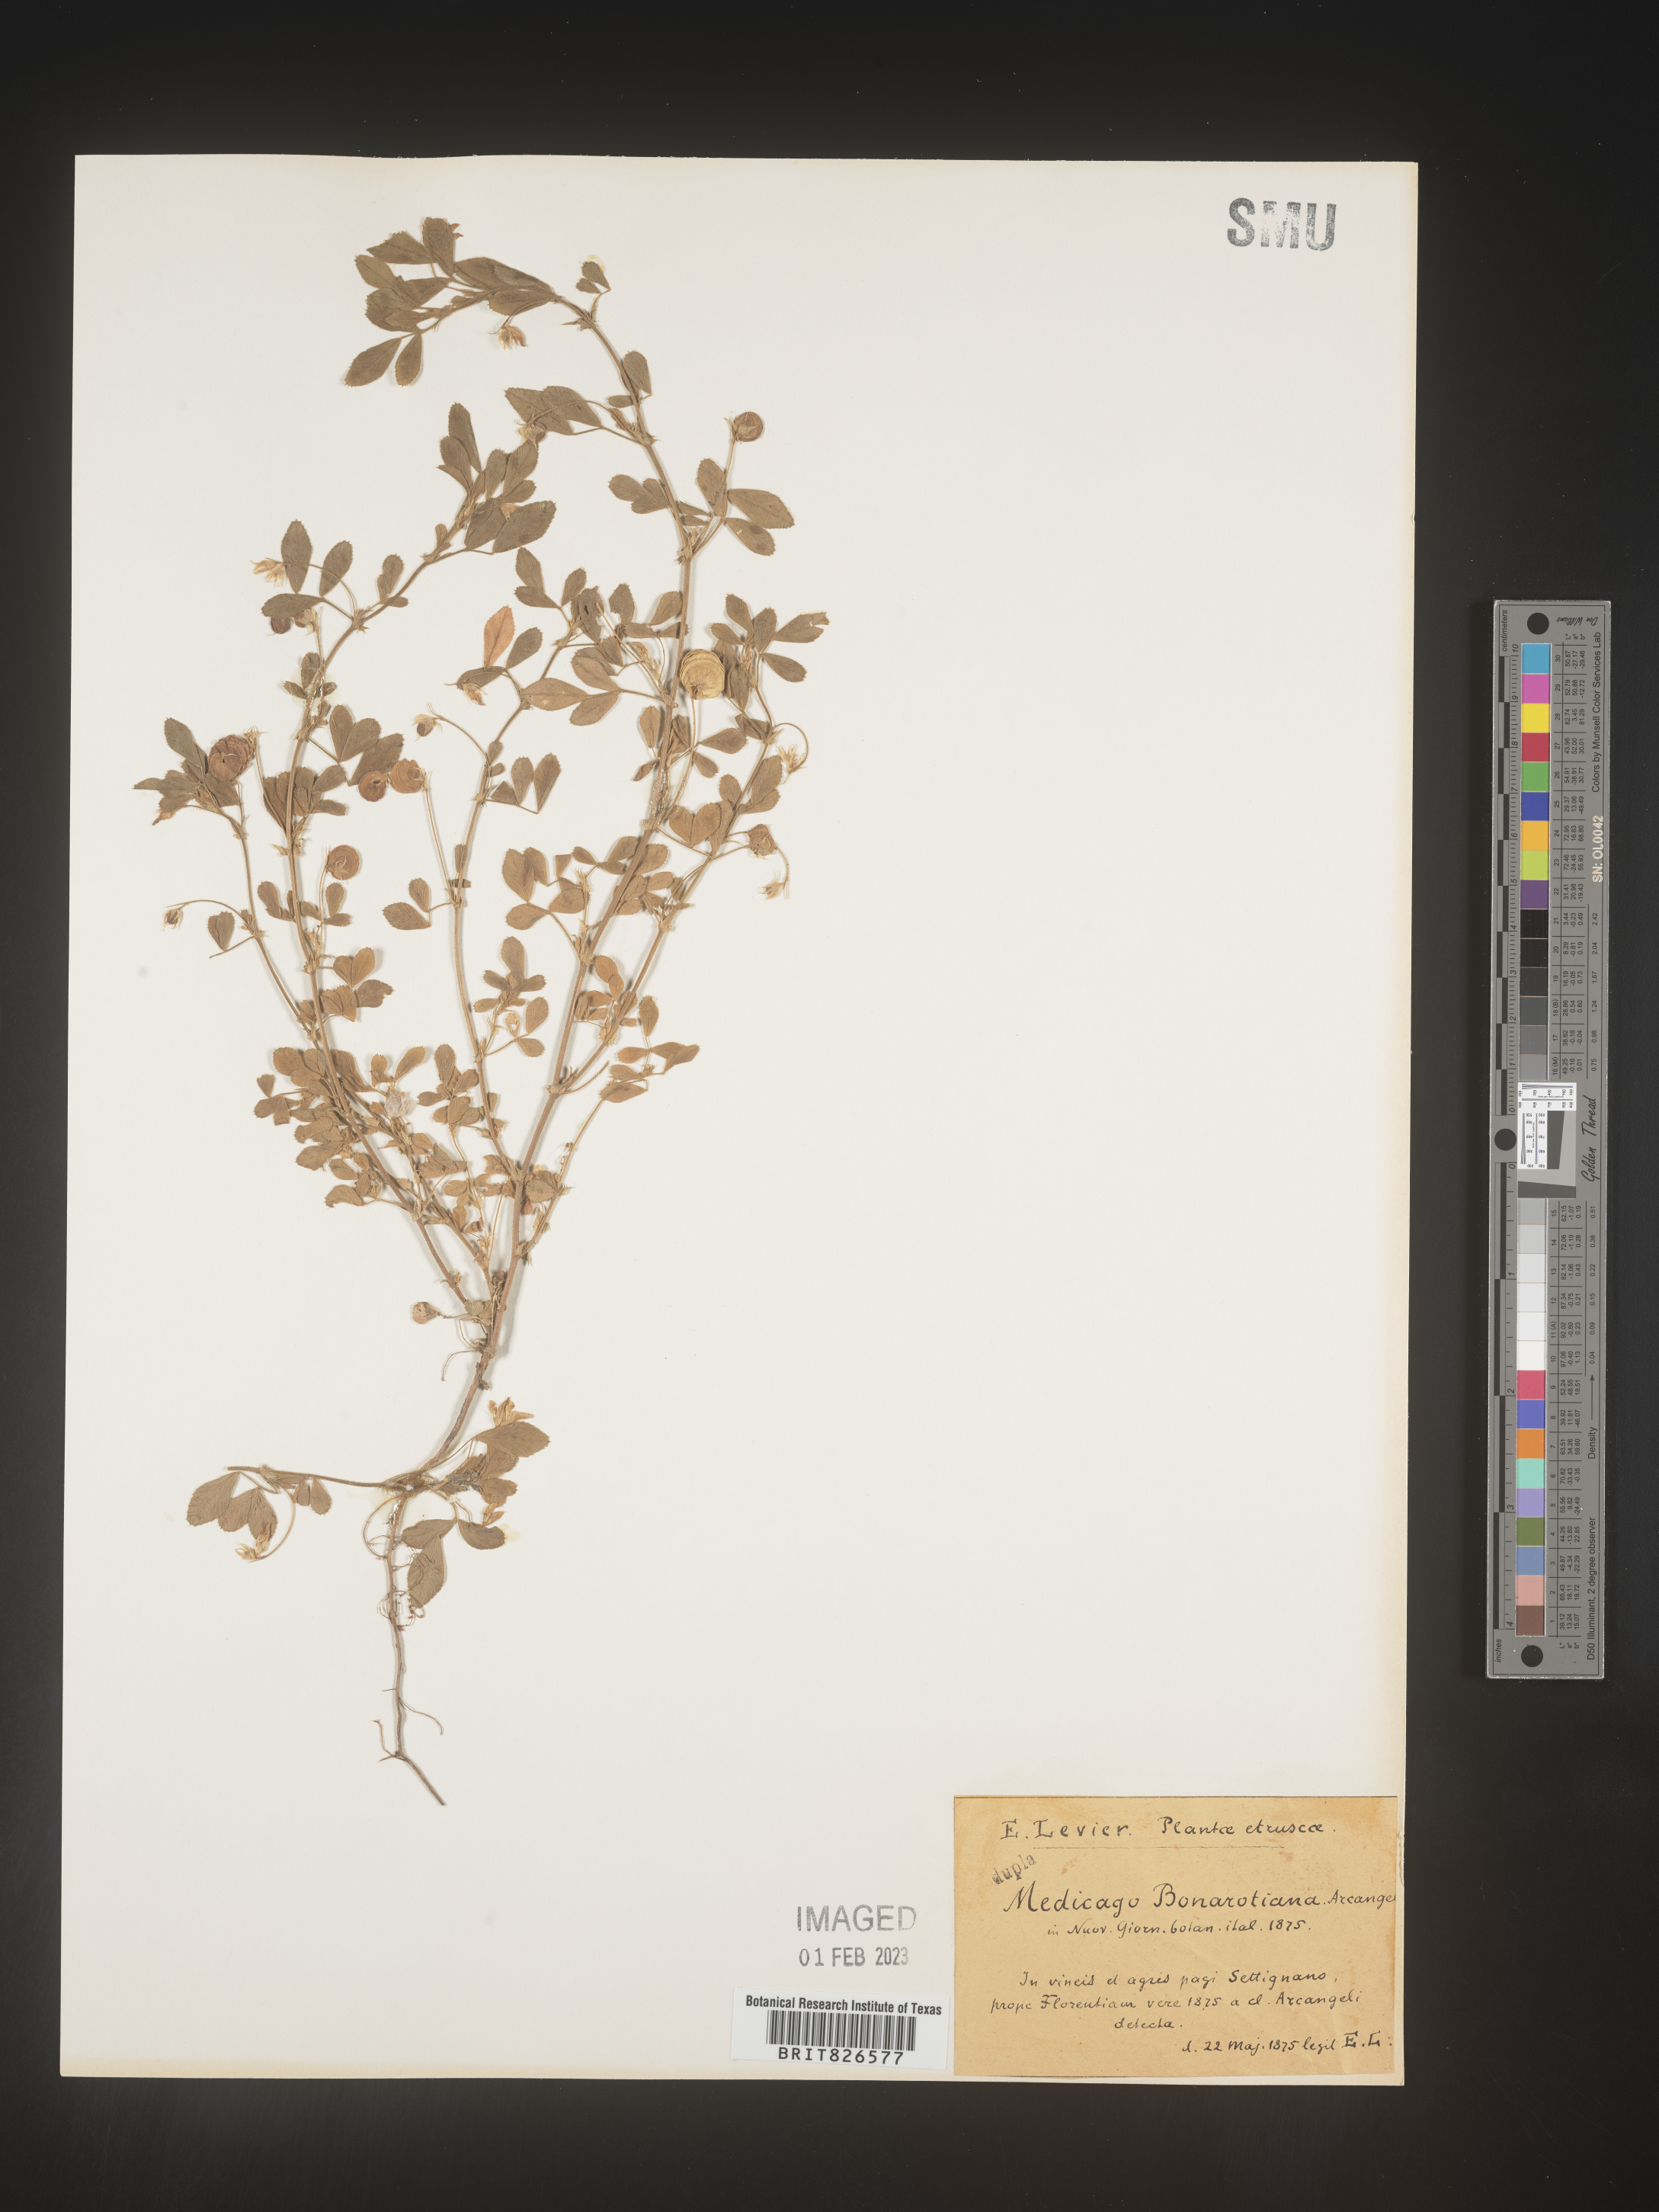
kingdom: Plantae
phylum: Tracheophyta
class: Magnoliopsida
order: Fabales
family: Fabaceae
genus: Medicago
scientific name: Medicago
